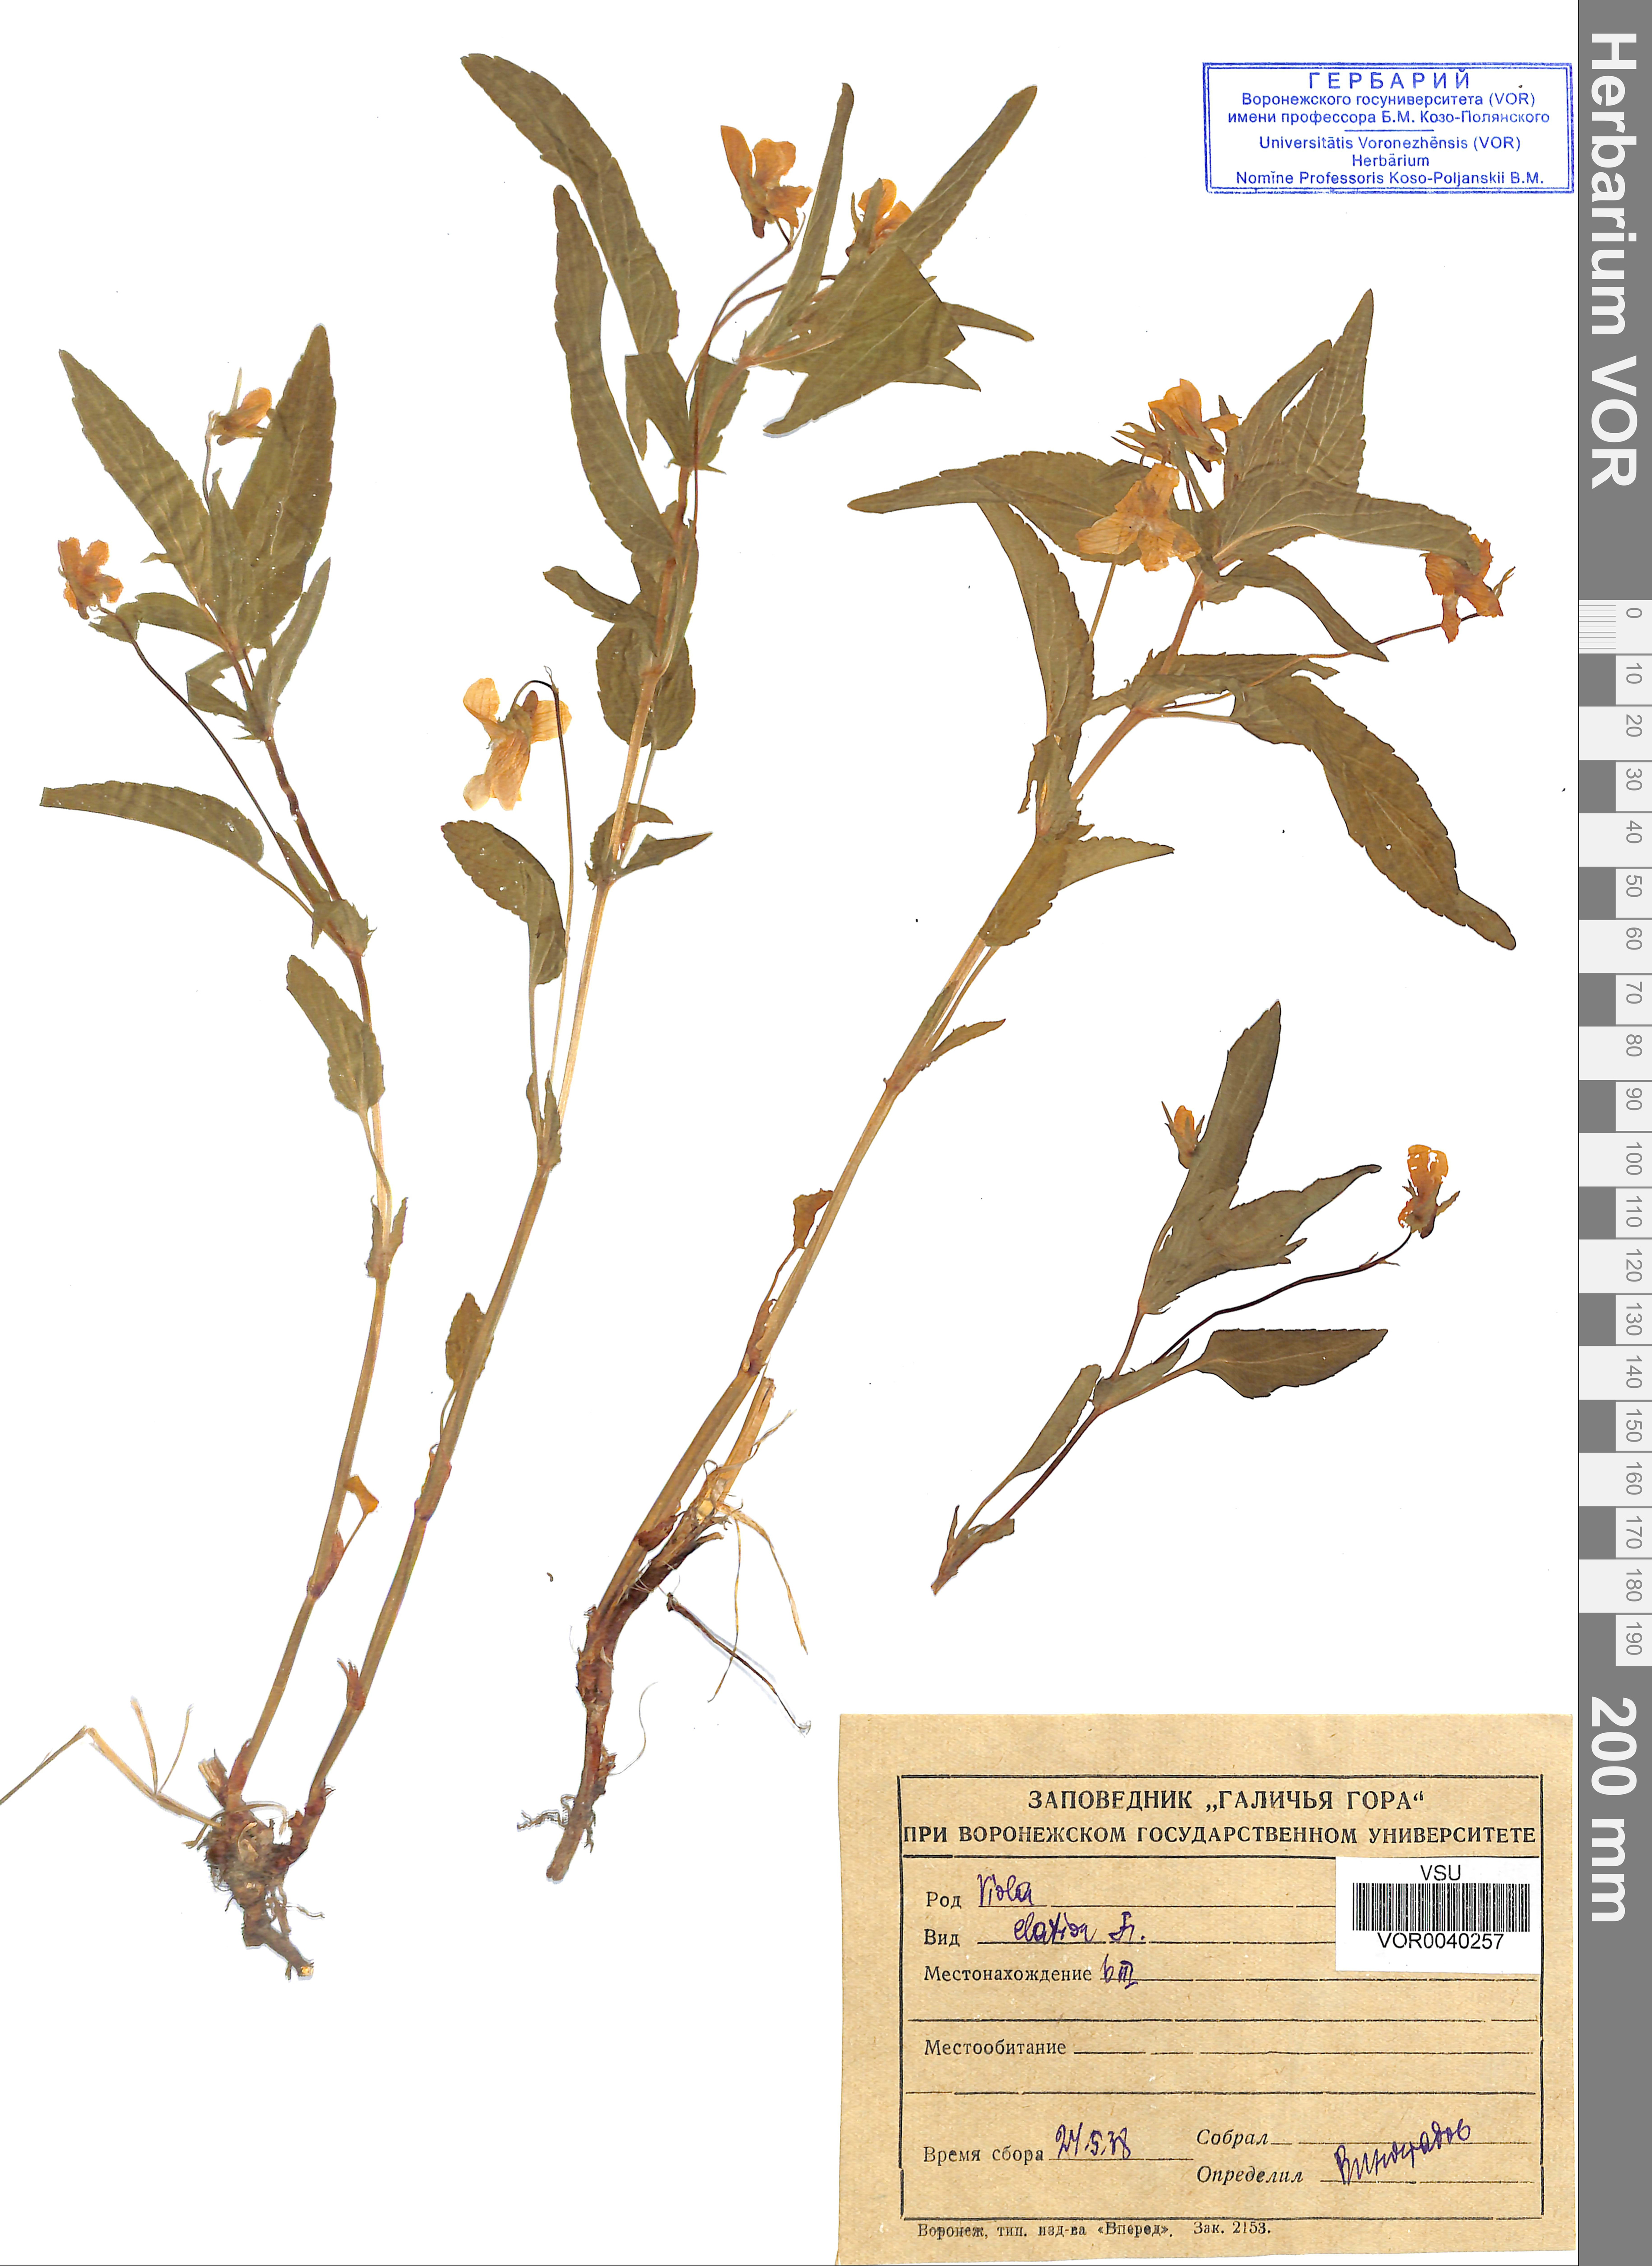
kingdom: Plantae
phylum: Tracheophyta
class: Magnoliopsida
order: Malpighiales
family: Violaceae
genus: Viola
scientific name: Viola elatior
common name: Tall violet
